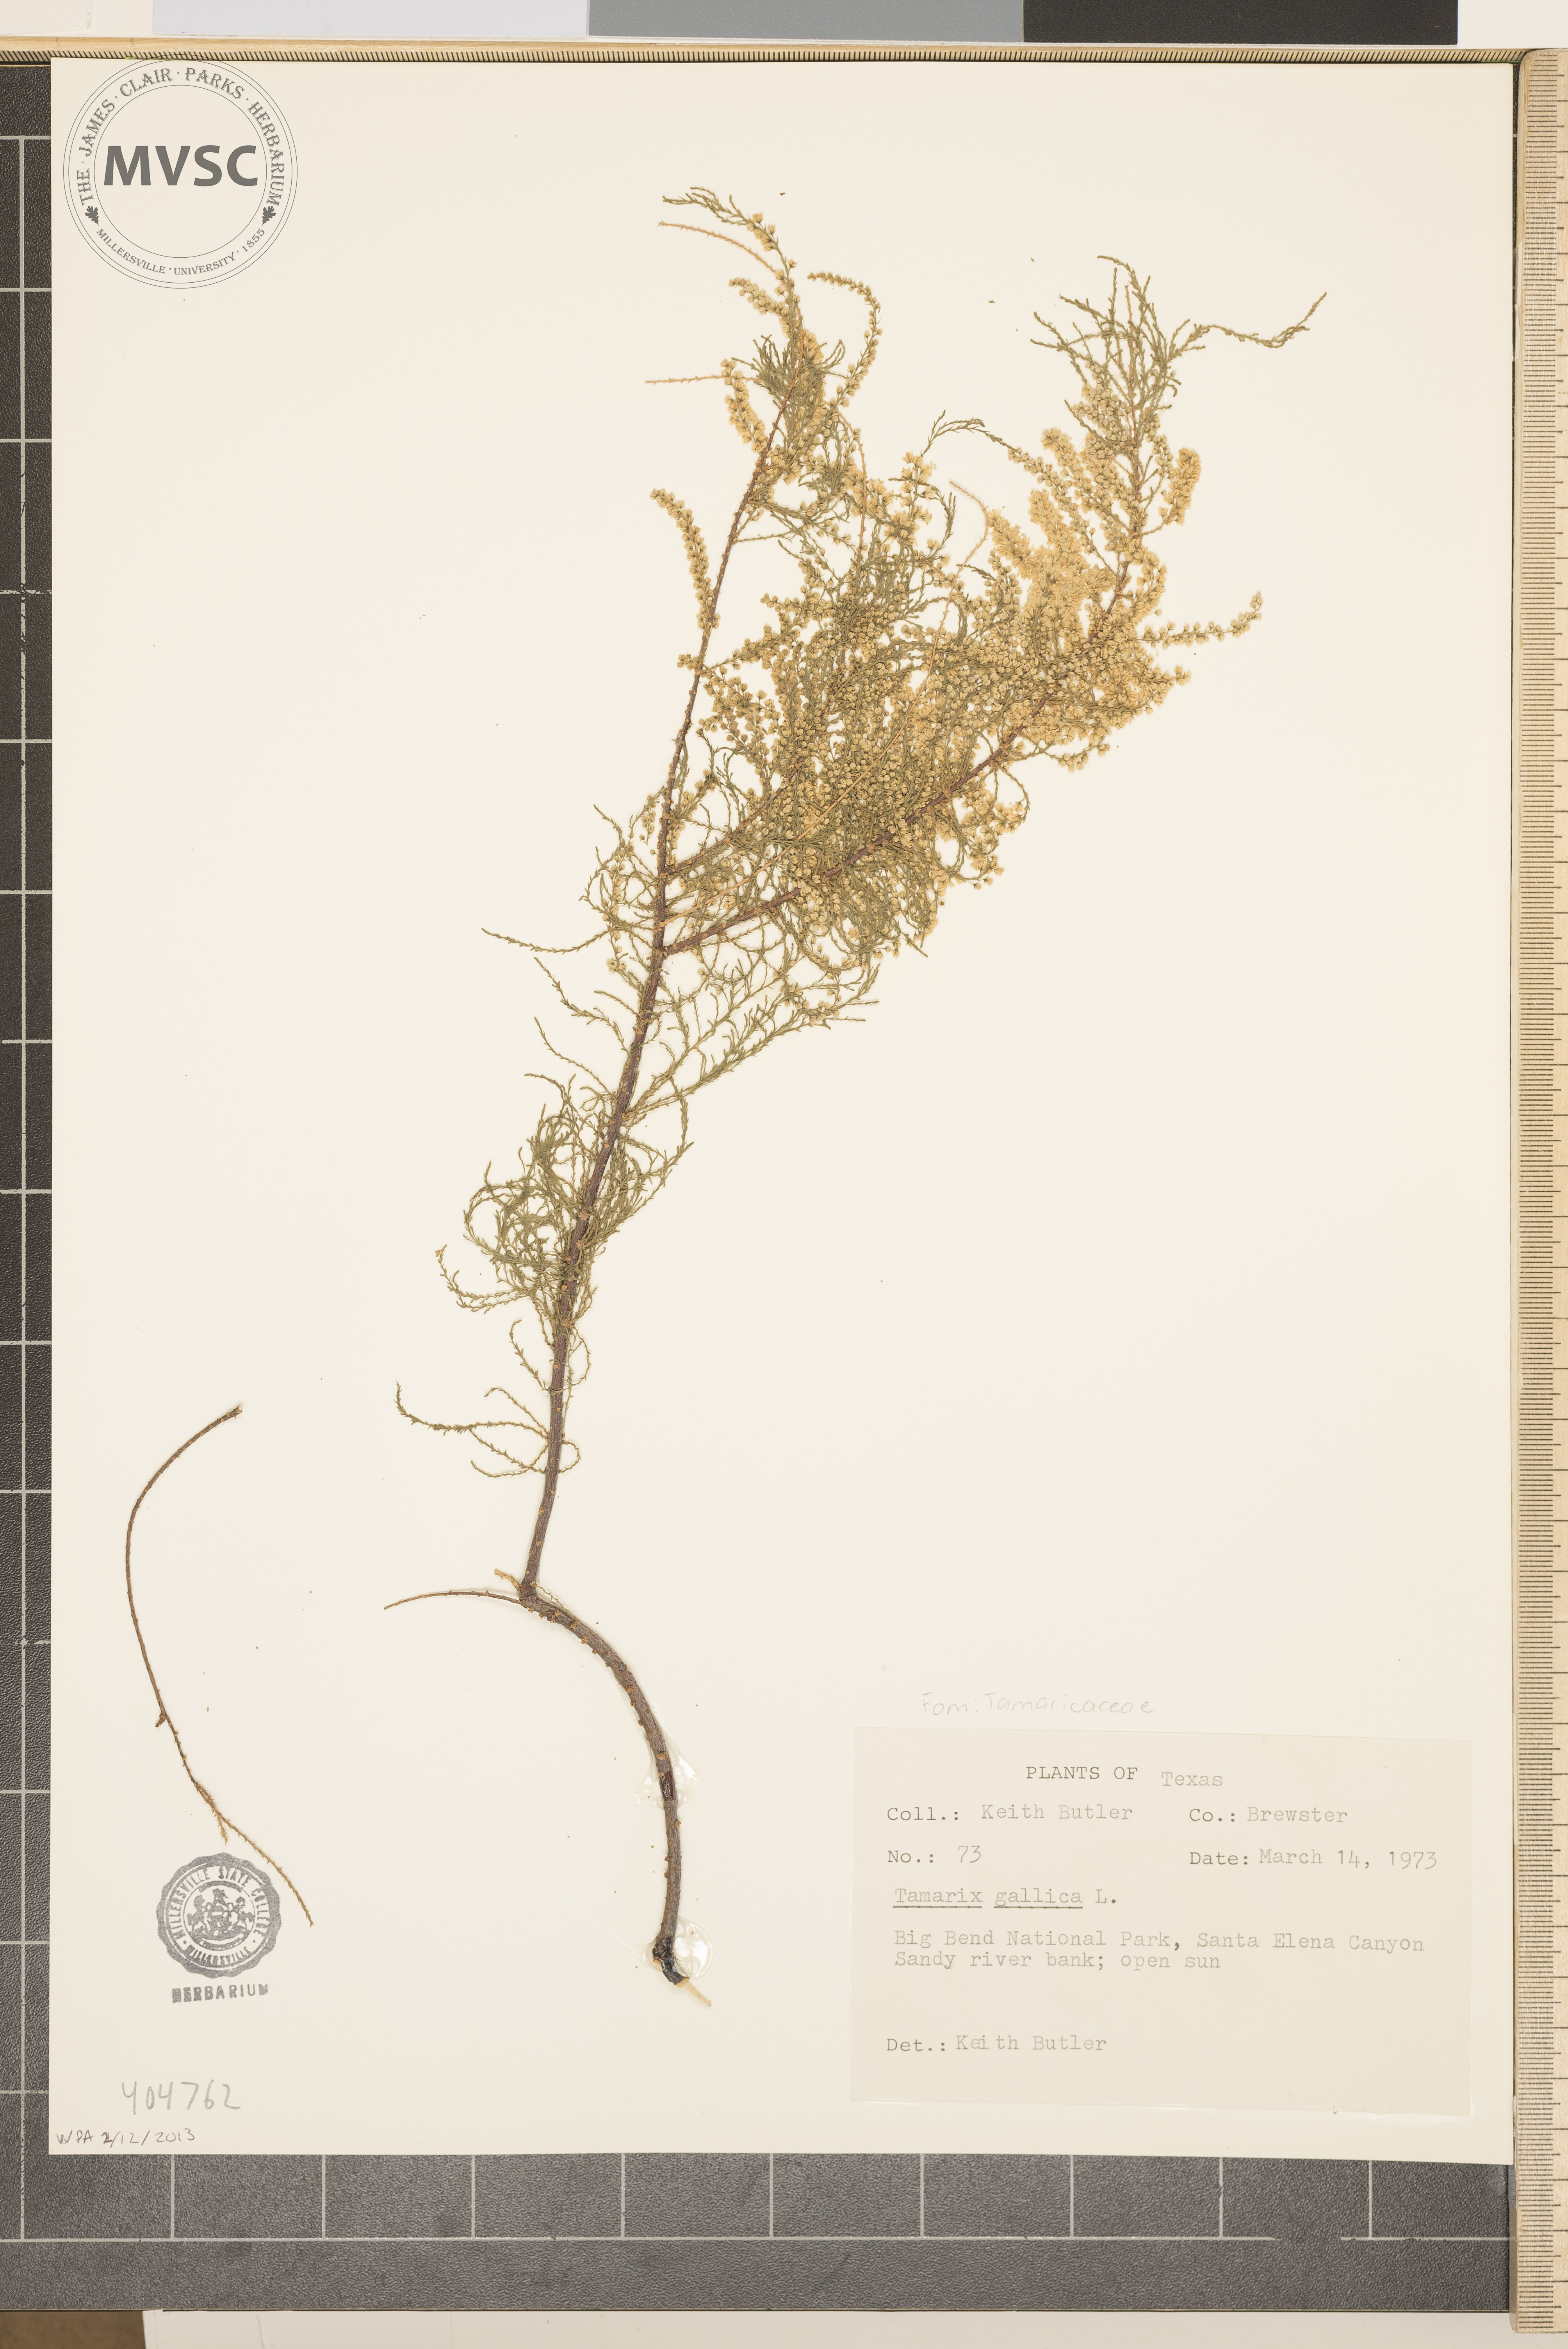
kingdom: Plantae
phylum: Tracheophyta
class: Magnoliopsida
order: Caryophyllales
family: Tamaricaceae
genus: Tamarix
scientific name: Tamarix gallica
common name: Tamarisk
